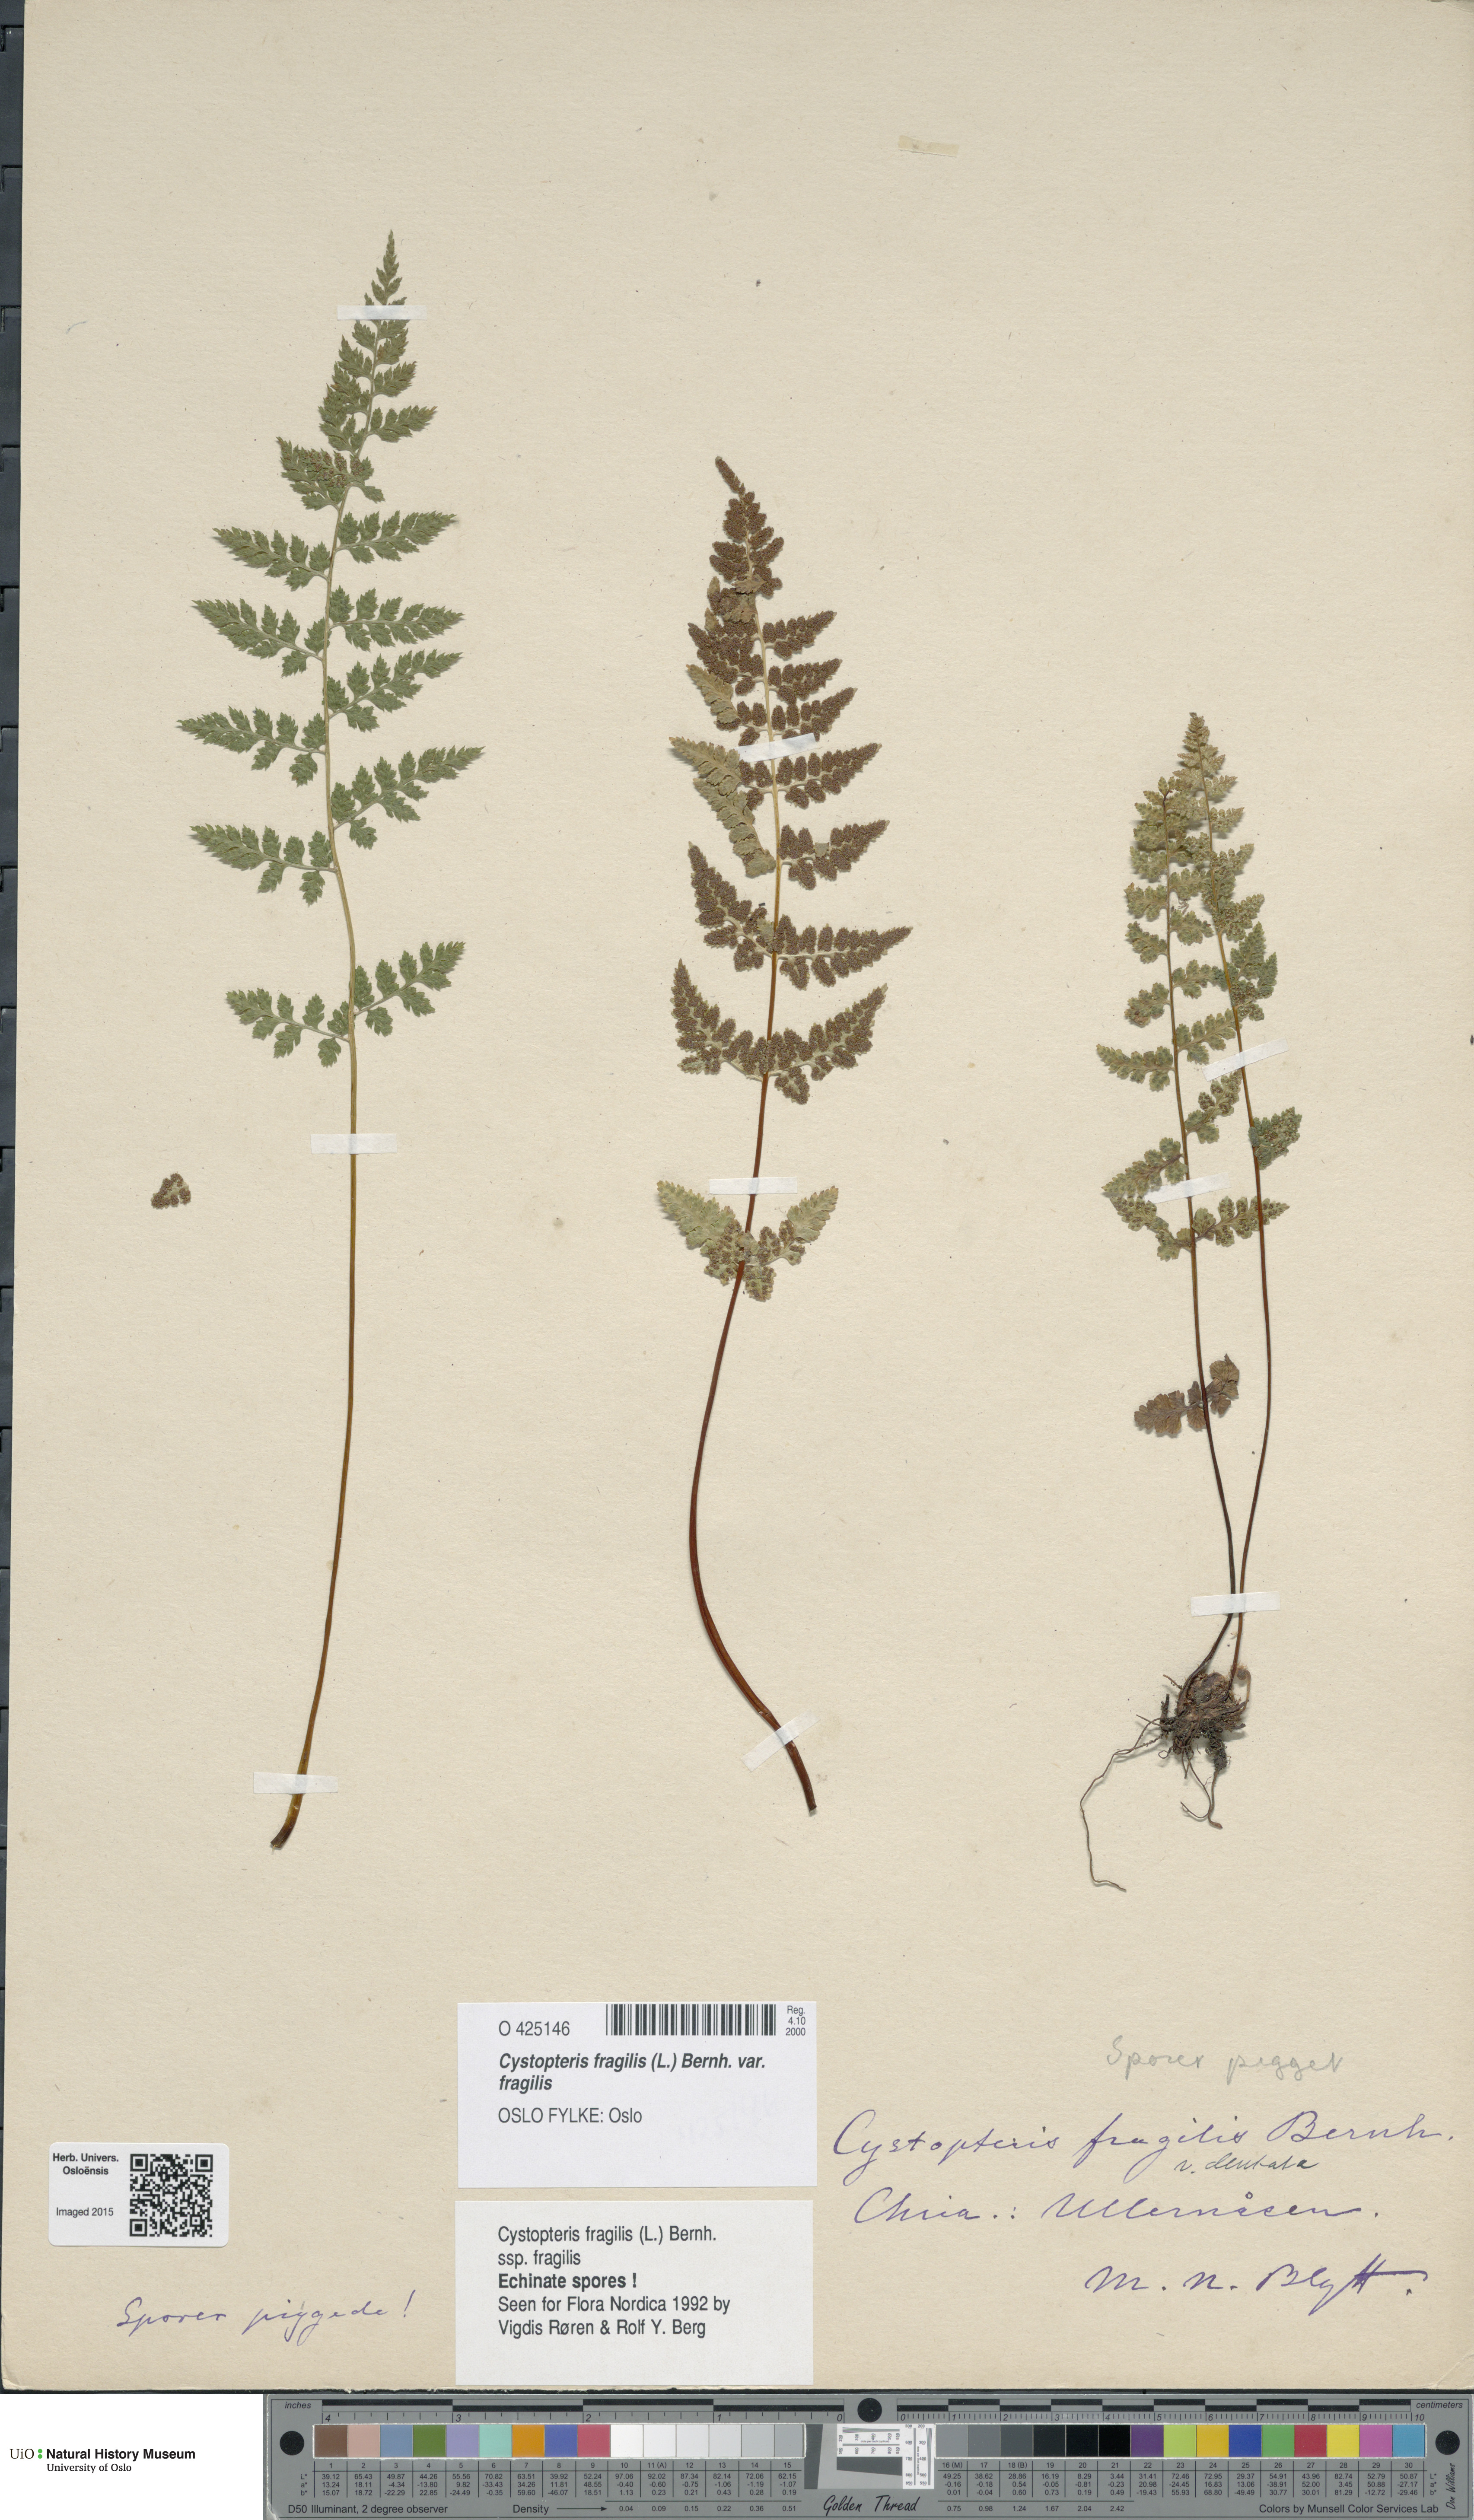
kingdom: Plantae
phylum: Tracheophyta
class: Polypodiopsida
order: Polypodiales
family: Cystopteridaceae
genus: Cystopteris
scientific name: Cystopteris fragilis
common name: Brittle bladder fern
